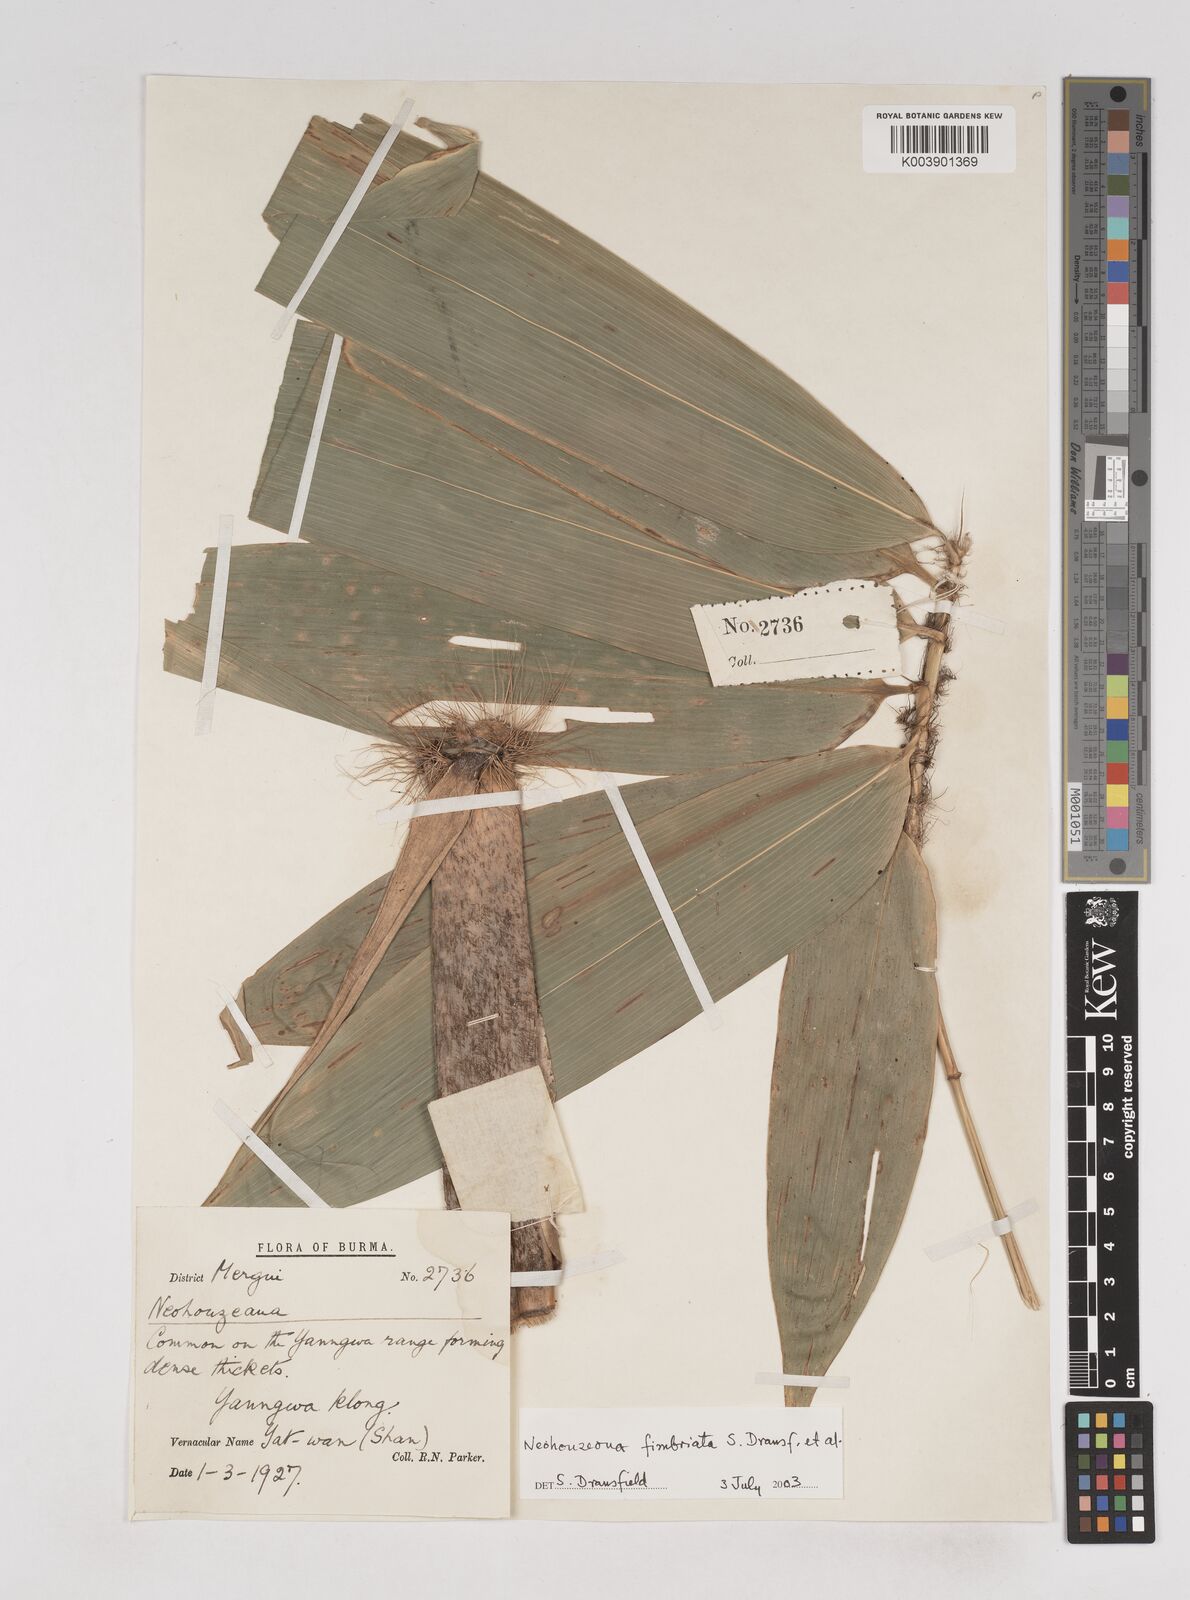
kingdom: Plantae
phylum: Tracheophyta
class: Liliopsida
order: Poales
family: Poaceae
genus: Schizostachyum
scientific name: Schizostachyum fimbriatum
